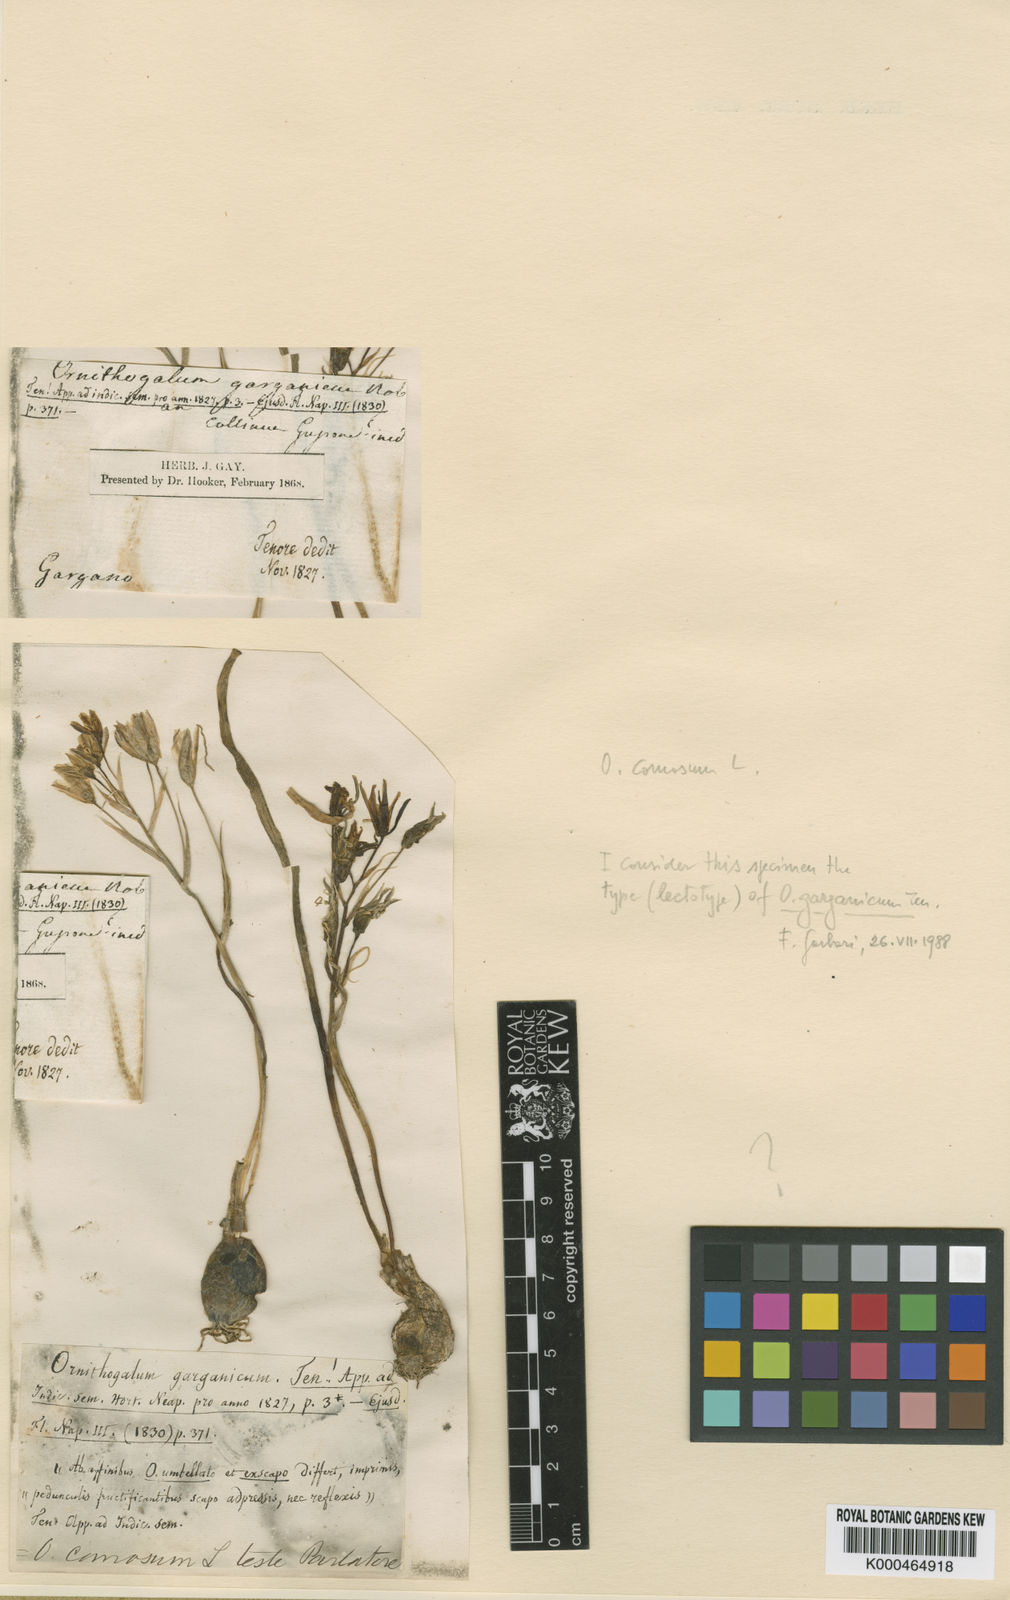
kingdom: Plantae
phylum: Tracheophyta
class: Liliopsida
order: Asparagales
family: Asparagaceae
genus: Ornithogalum
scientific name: Ornithogalum comosum
